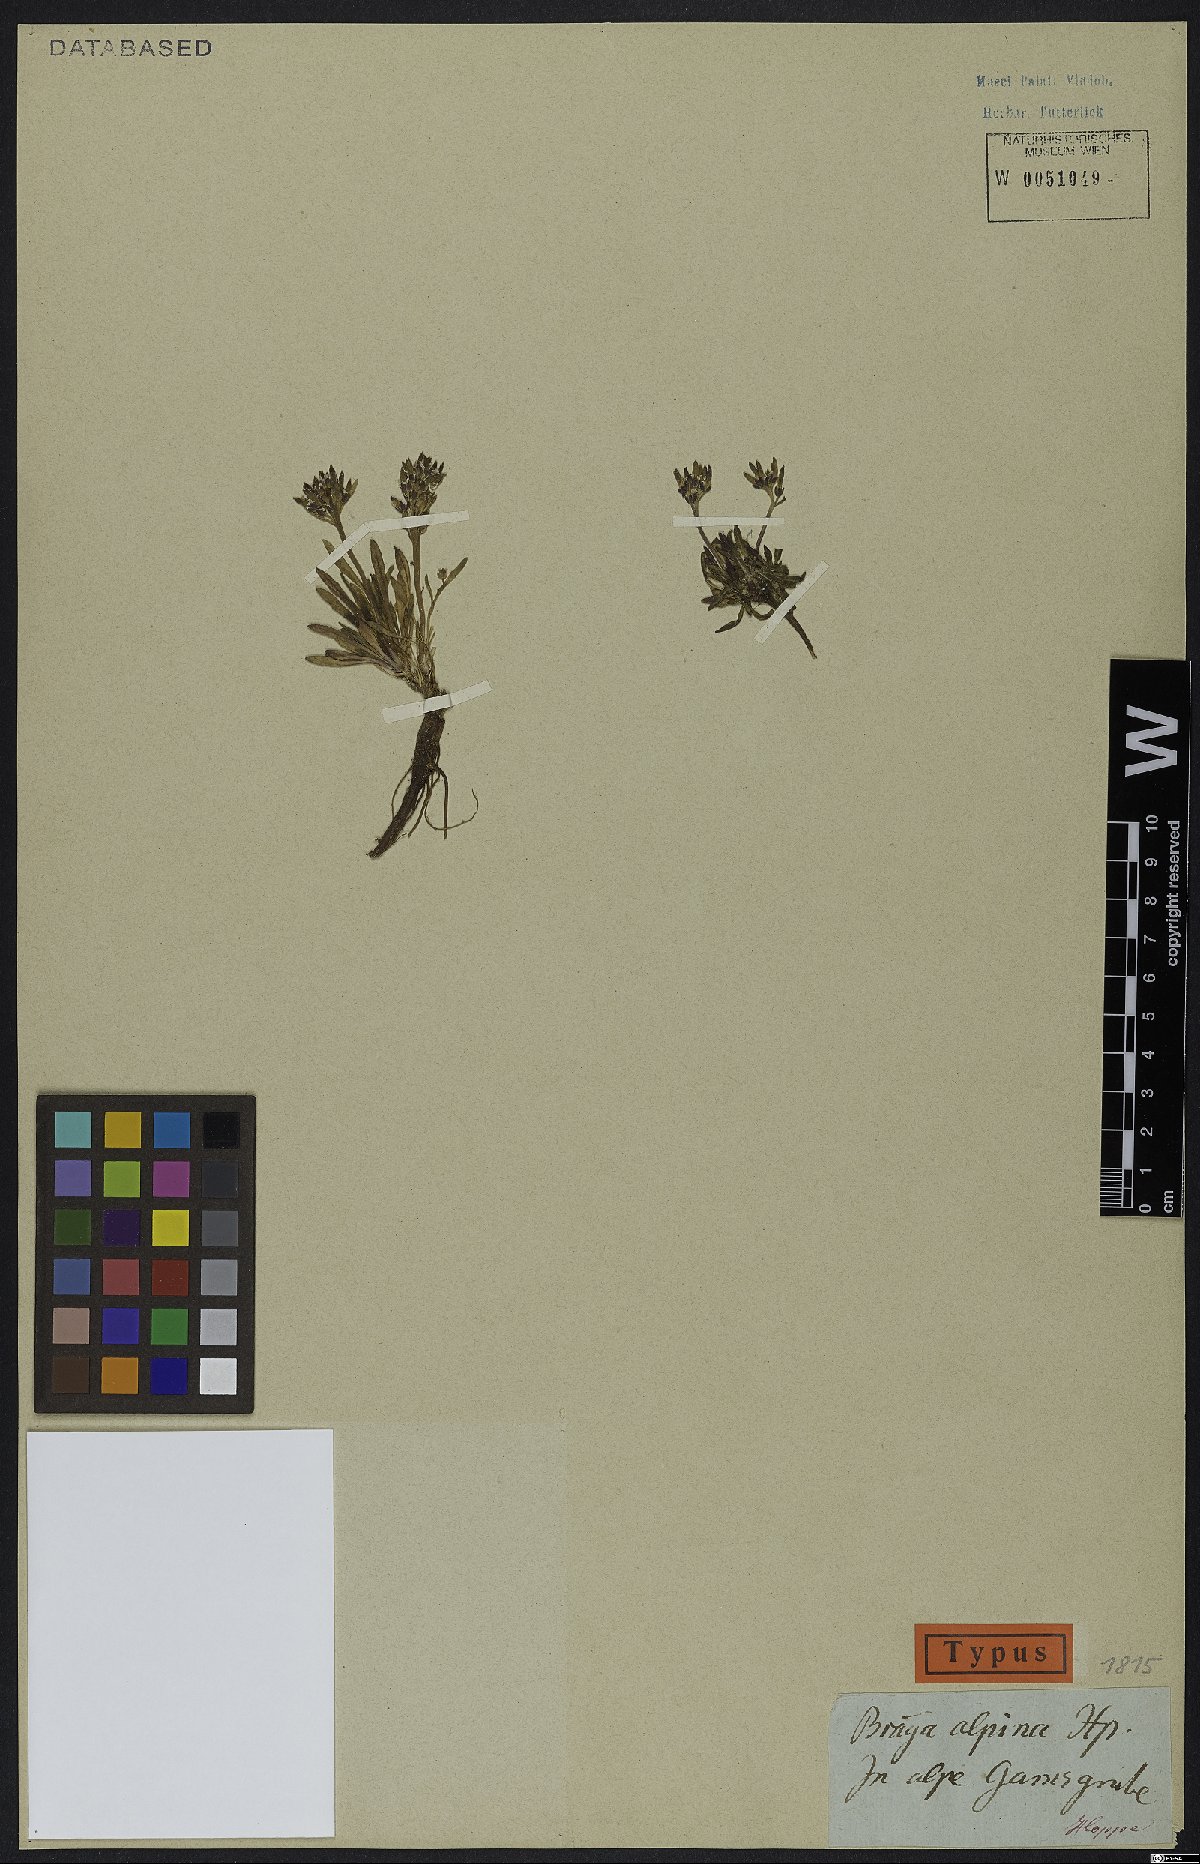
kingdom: Plantae
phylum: Tracheophyta
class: Magnoliopsida
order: Brassicales
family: Brassicaceae
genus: Braya
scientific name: Braya alpina
